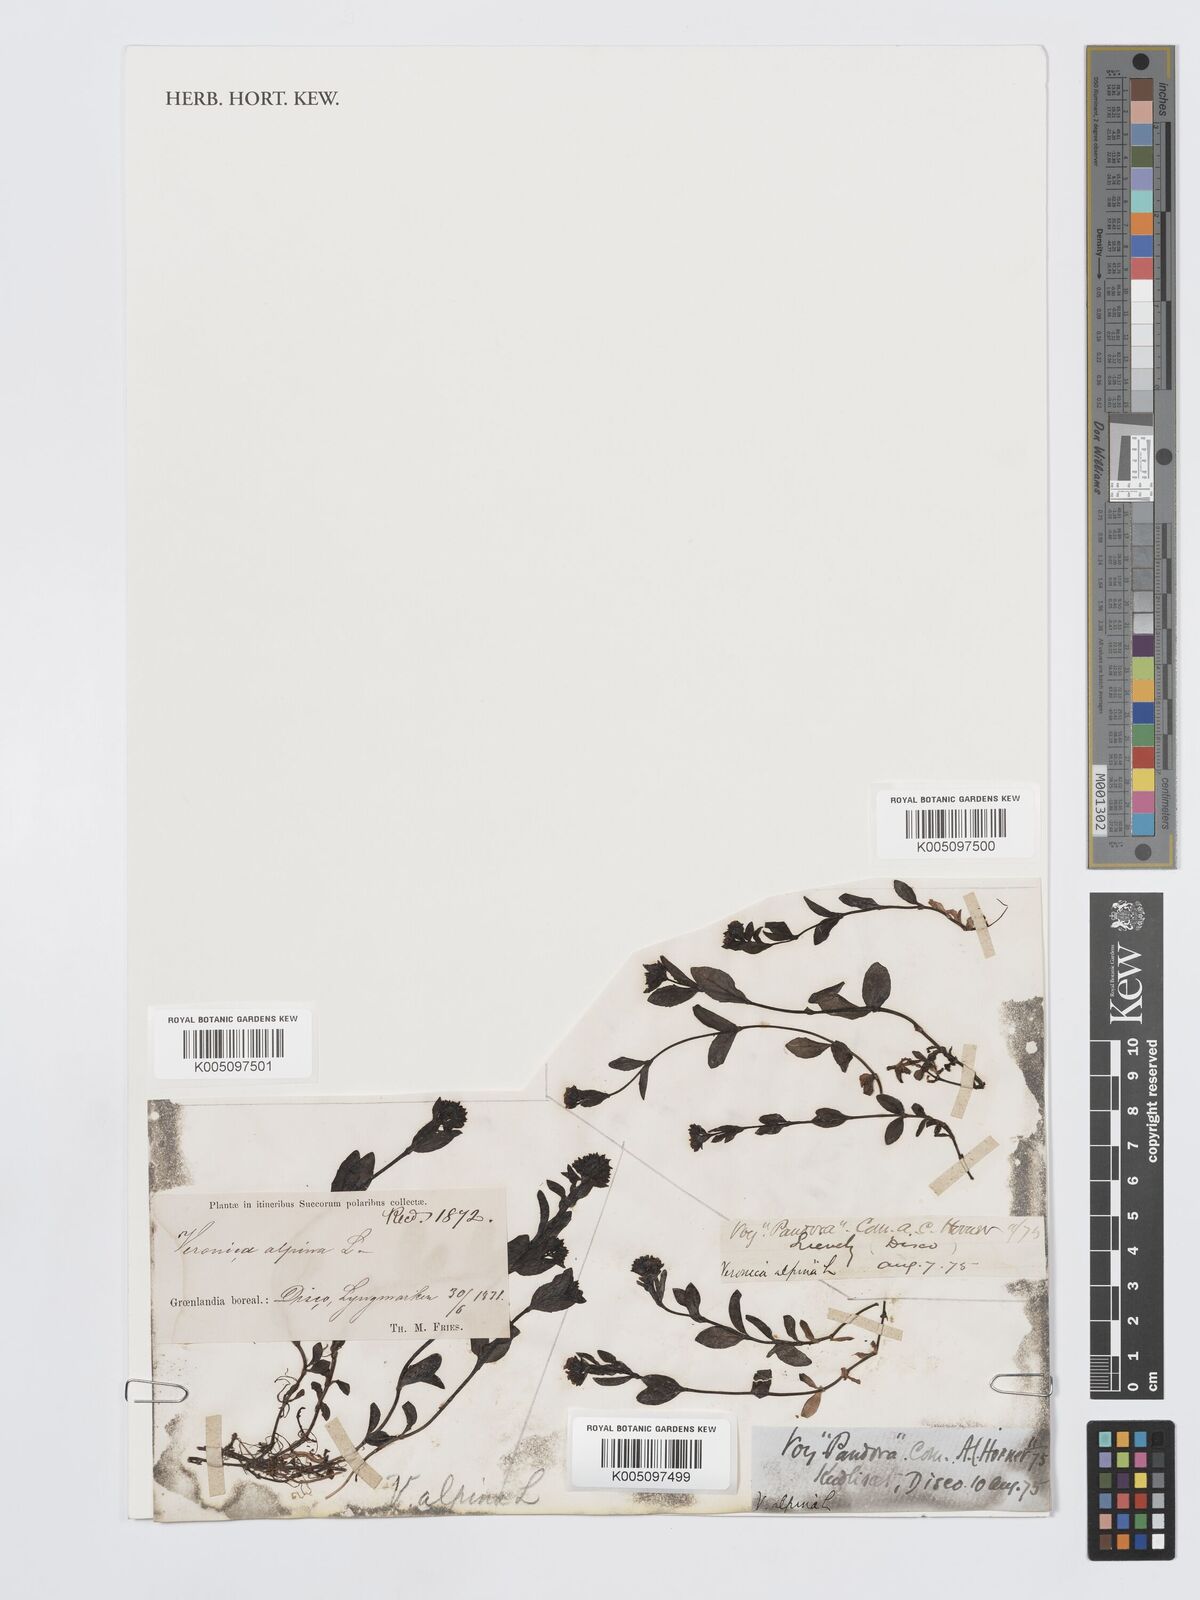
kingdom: Plantae
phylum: Tracheophyta
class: Magnoliopsida
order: Lamiales
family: Plantaginaceae
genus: Veronica
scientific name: Veronica alpina
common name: Alpine speedwell
